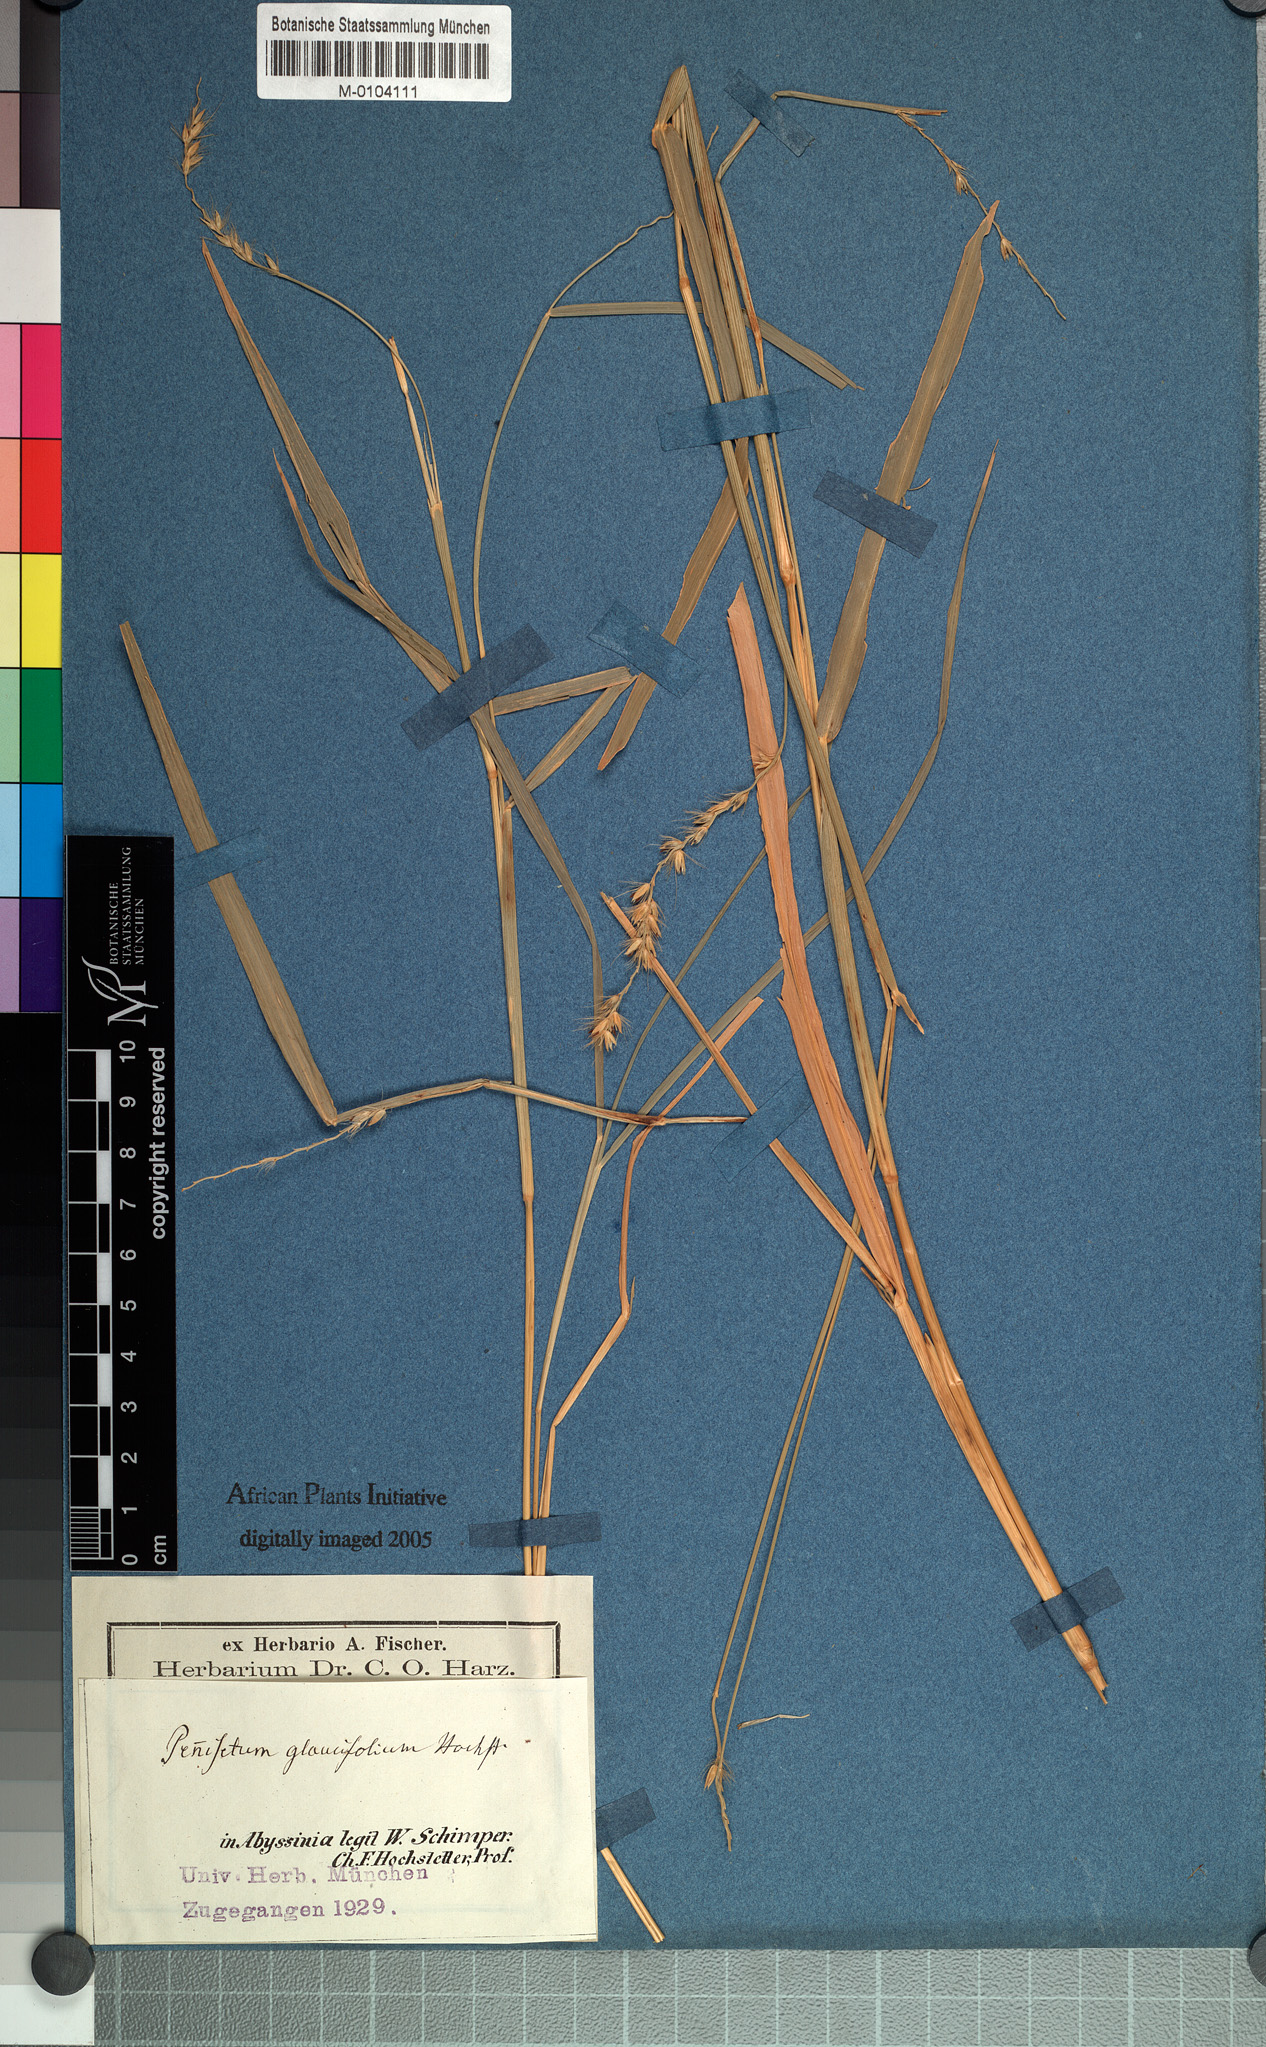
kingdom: Plantae
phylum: Tracheophyta
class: Liliopsida
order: Poales
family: Poaceae
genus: Cenchrus
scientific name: Cenchrus glaucifolius
